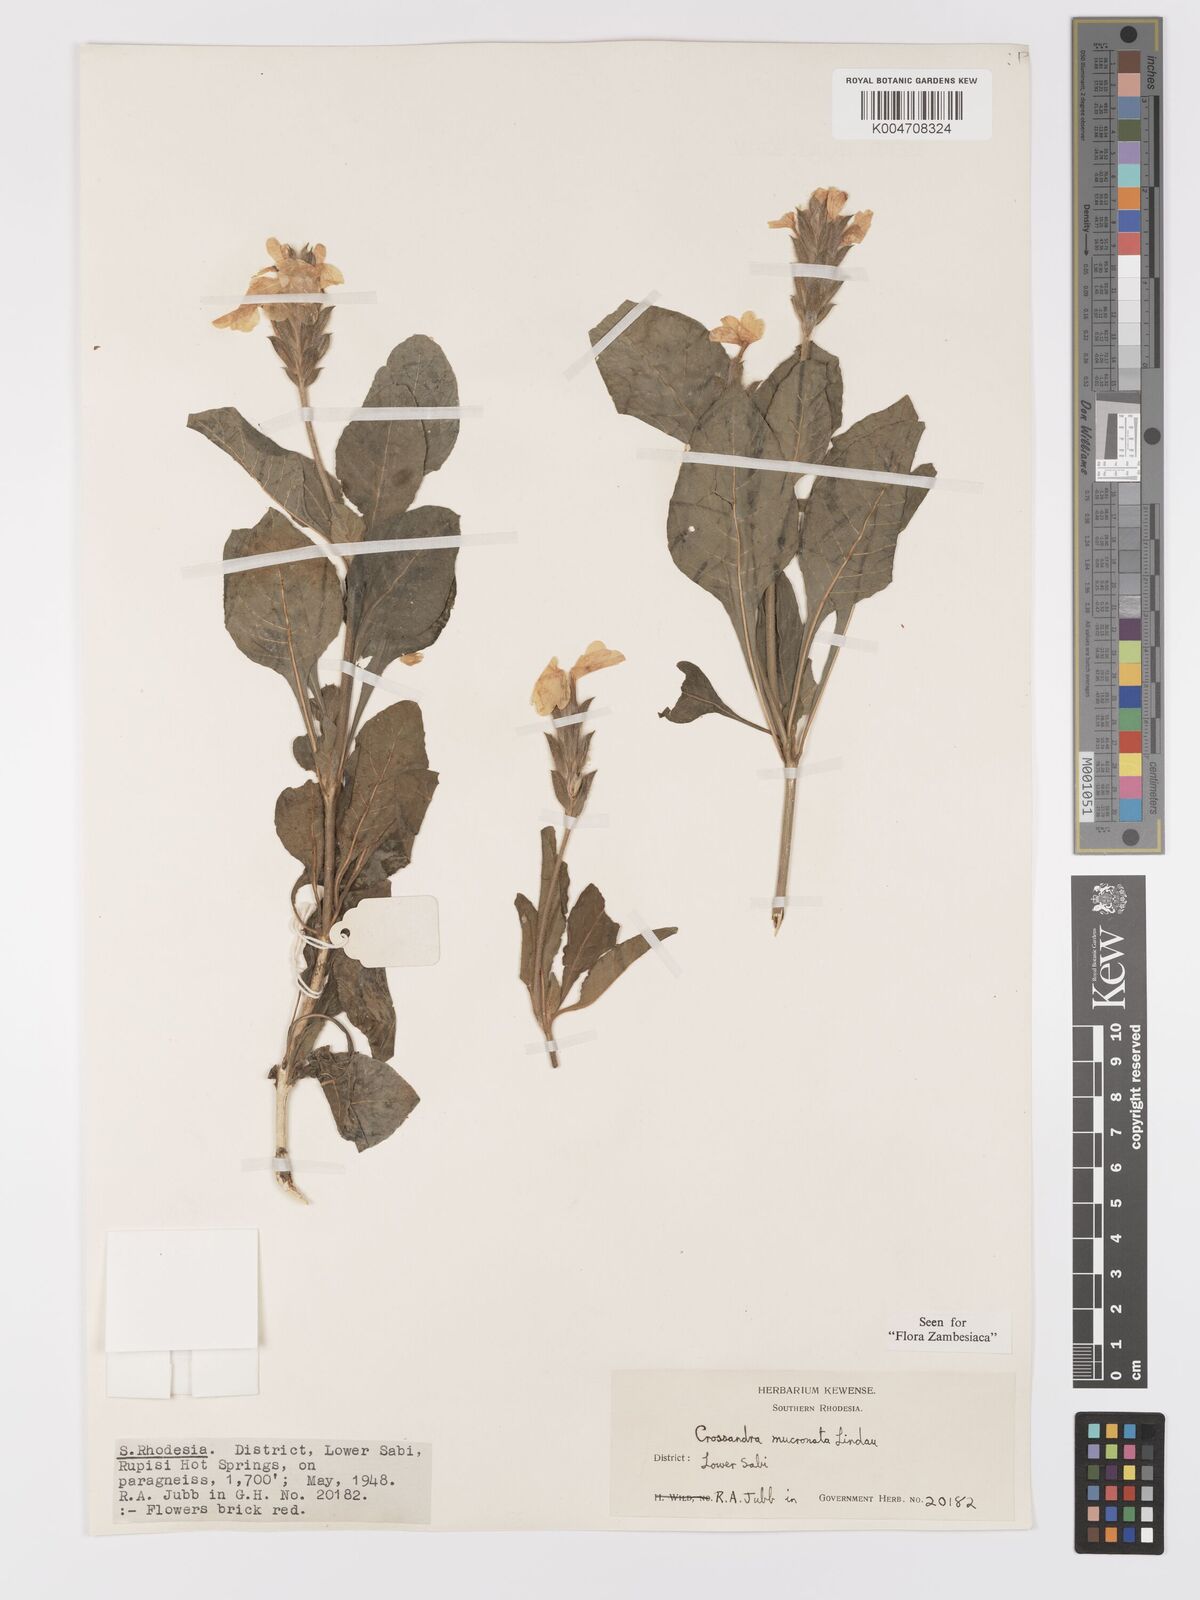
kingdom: Plantae
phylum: Tracheophyta
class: Magnoliopsida
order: Lamiales
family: Acanthaceae
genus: Crossandra
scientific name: Crossandra mucronata
